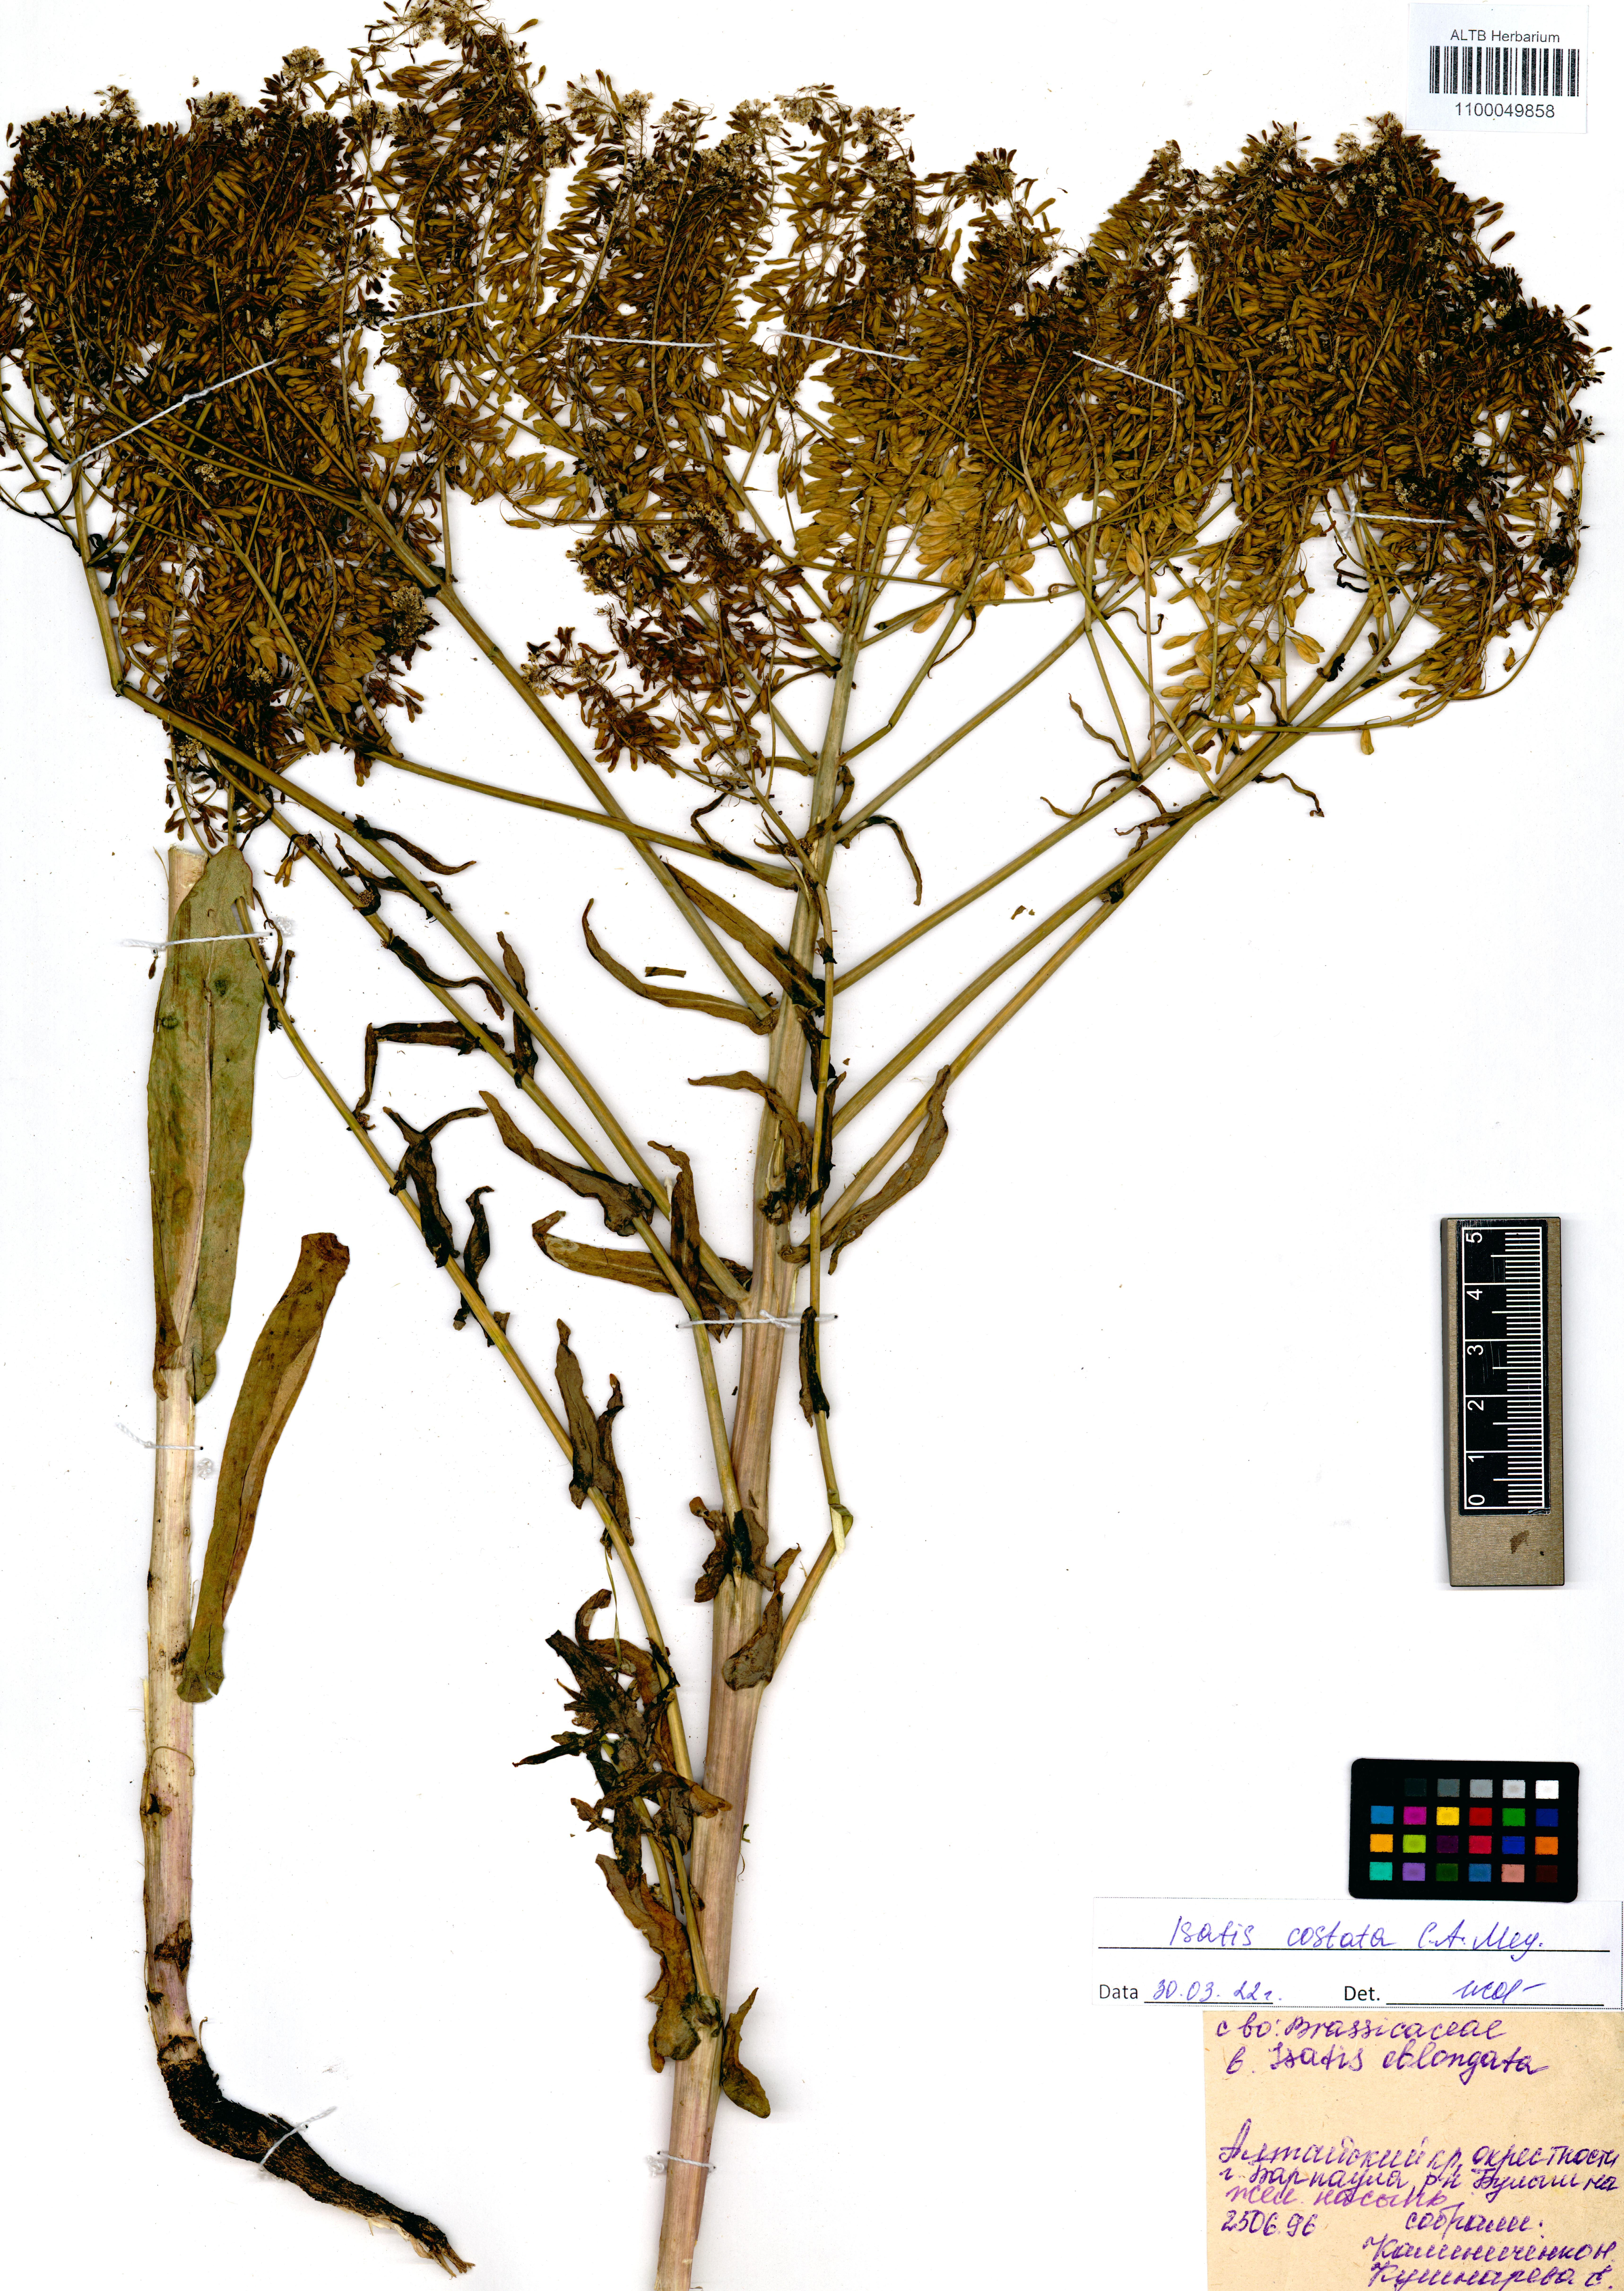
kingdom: Plantae
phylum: Tracheophyta
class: Magnoliopsida
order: Brassicales
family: Brassicaceae
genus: Isatis
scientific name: Isatis costata
